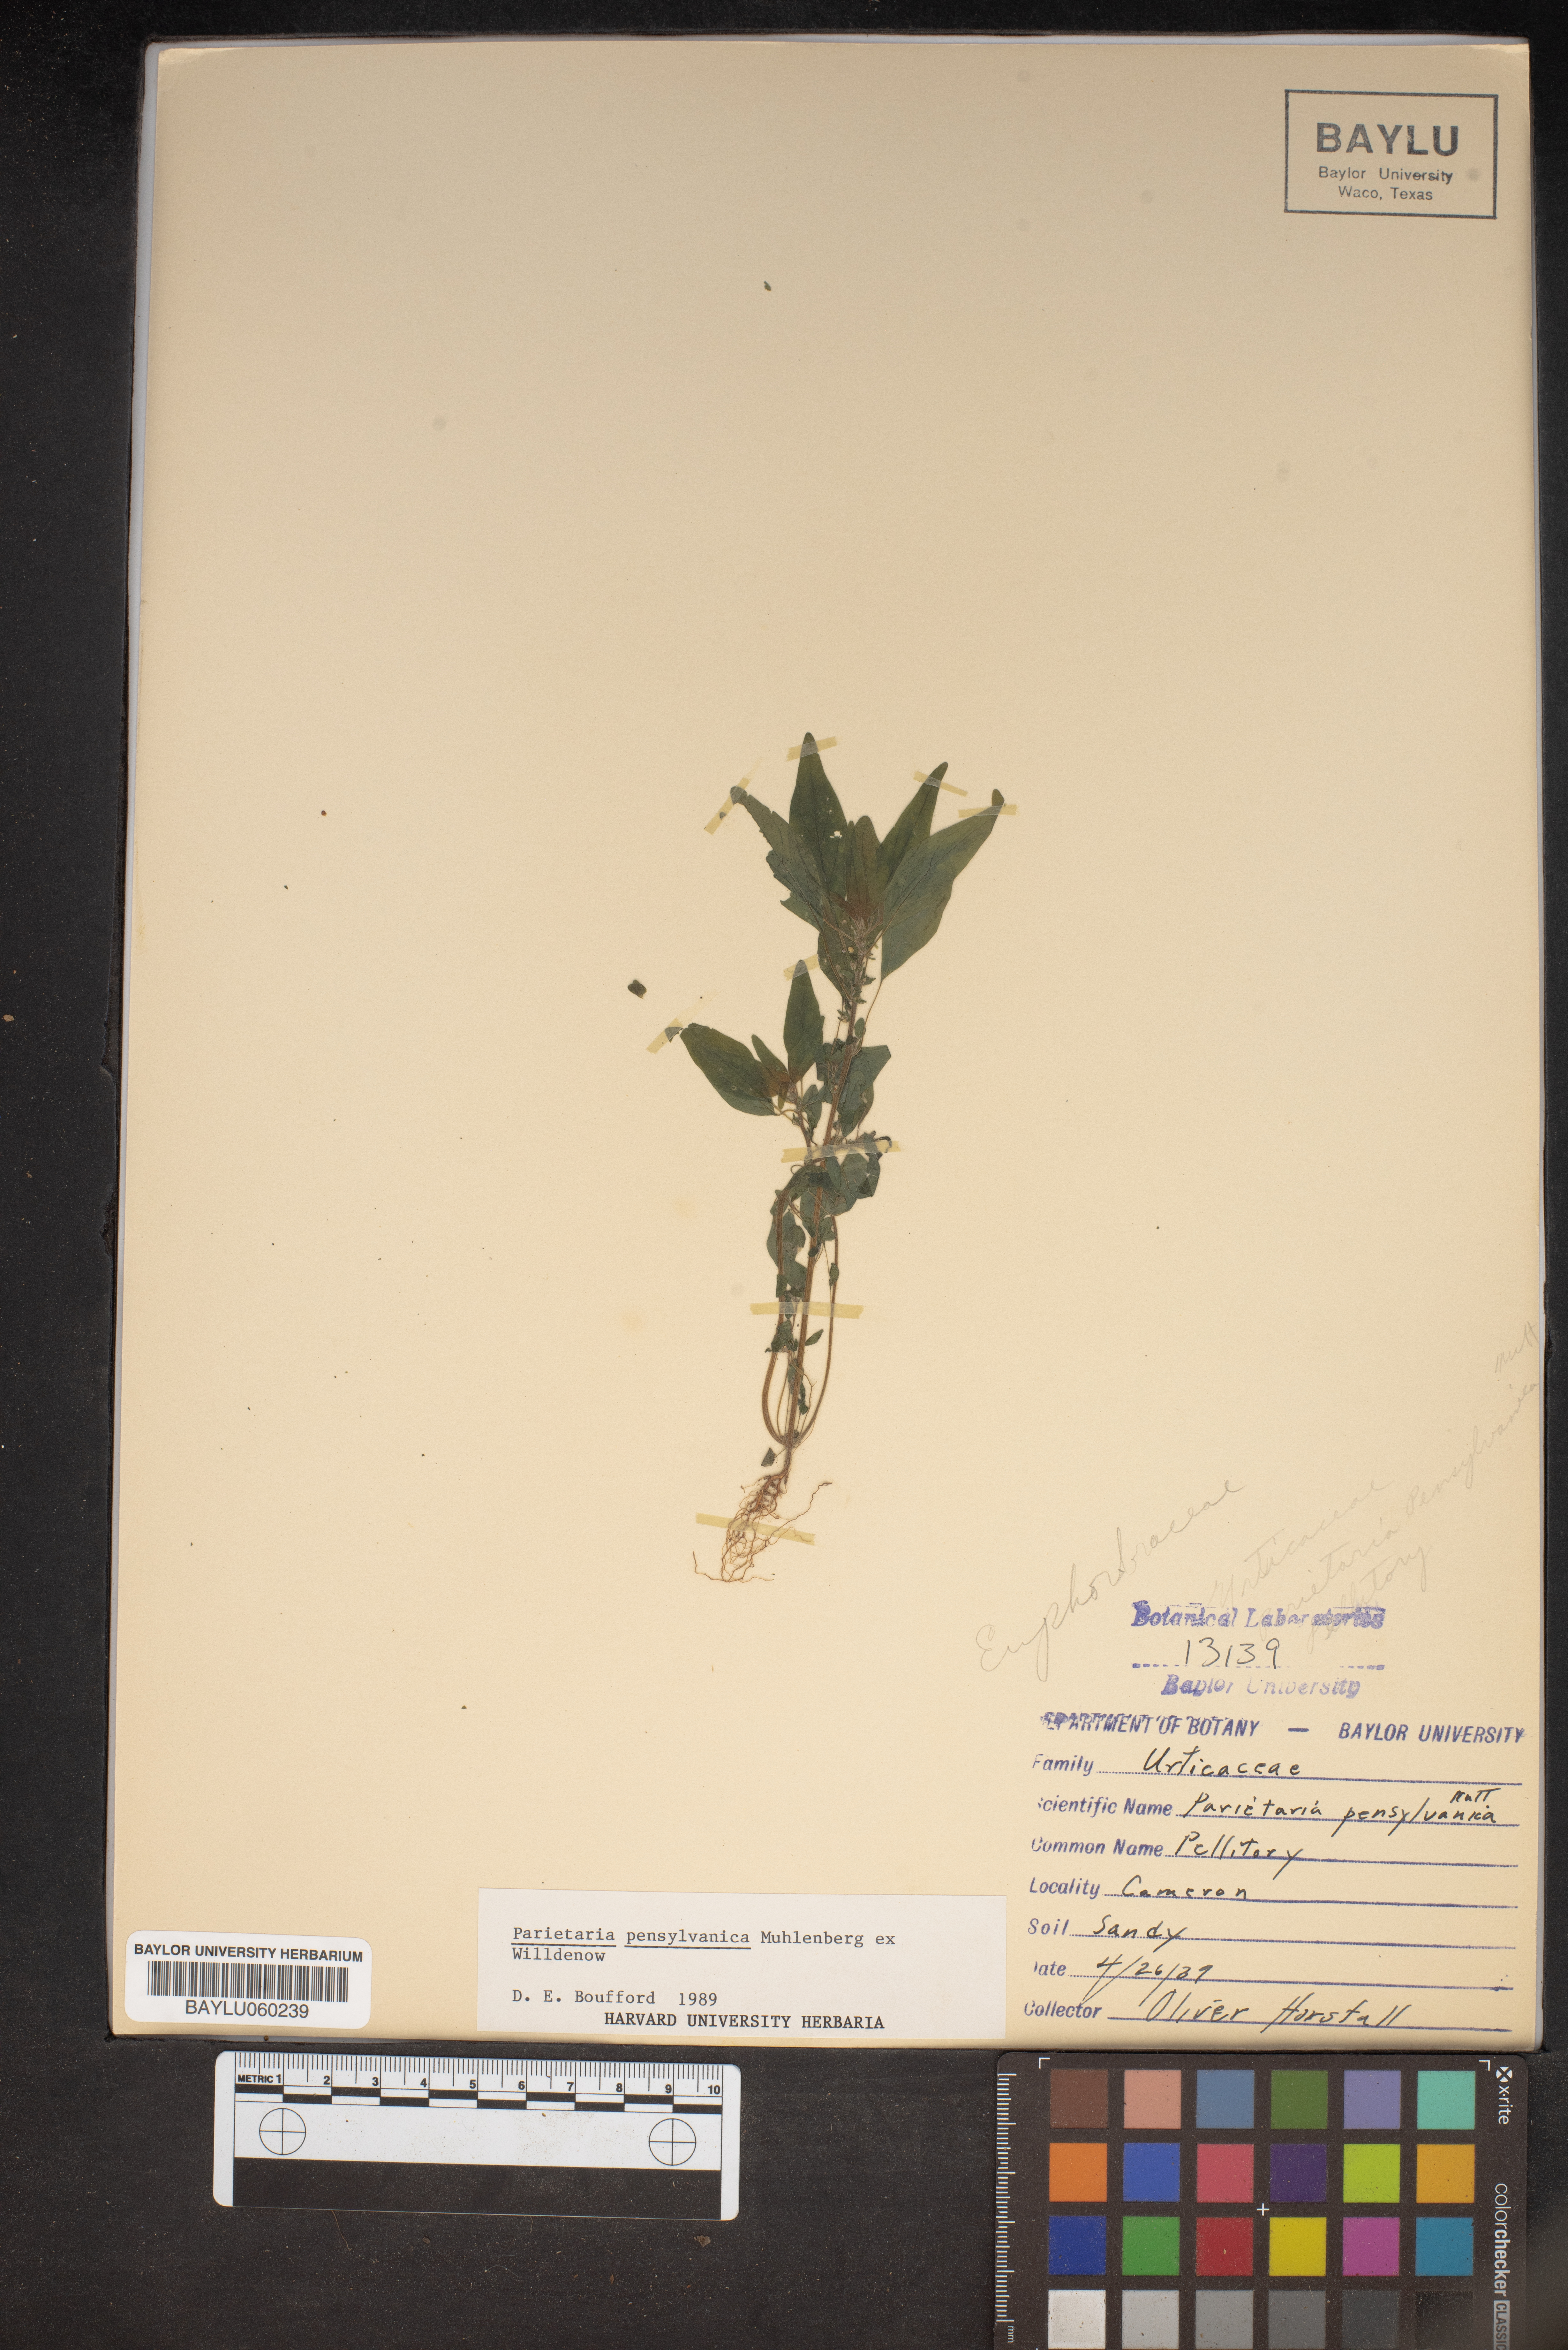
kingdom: Plantae
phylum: Tracheophyta
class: Magnoliopsida
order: Rosales
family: Urticaceae
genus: Parietaria
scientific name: Parietaria pensylvanica
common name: Pennsylvania pellitory
